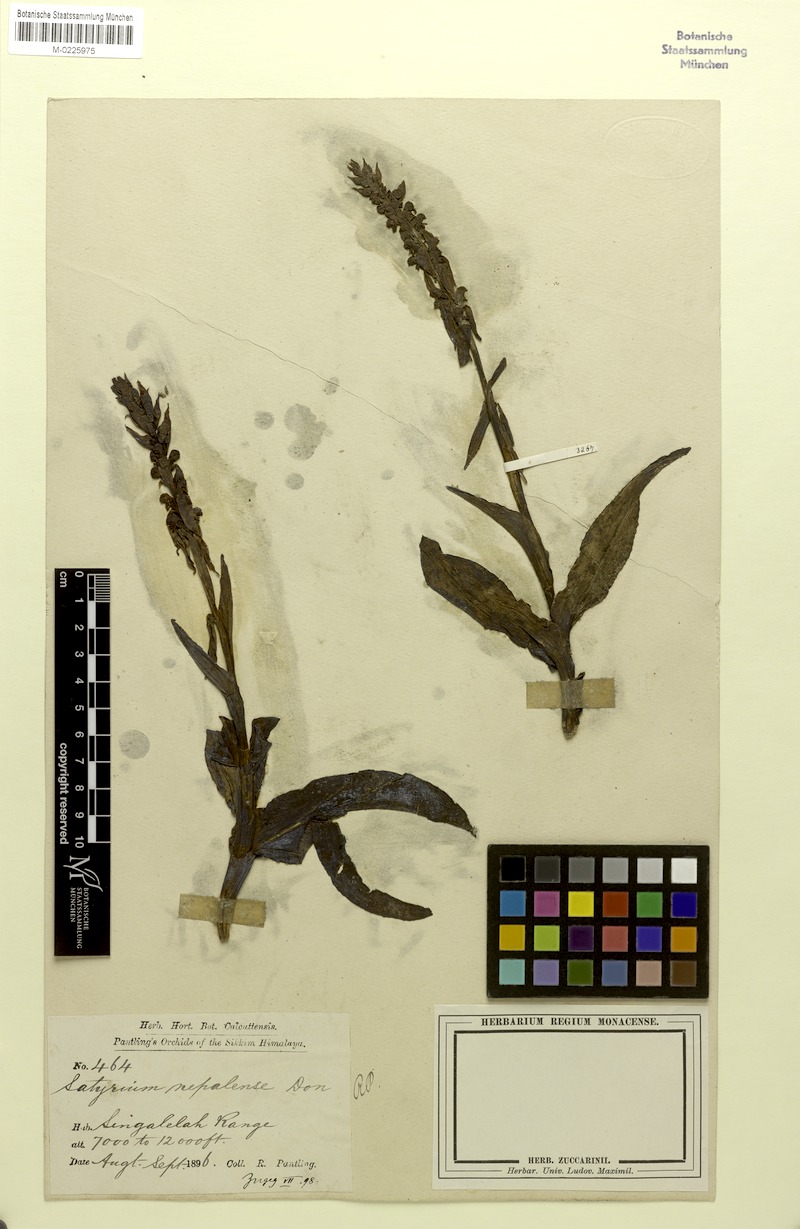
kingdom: Plantae
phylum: Tracheophyta
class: Liliopsida
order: Asparagales
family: Orchidaceae
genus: Satyrium
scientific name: Satyrium nepalense
